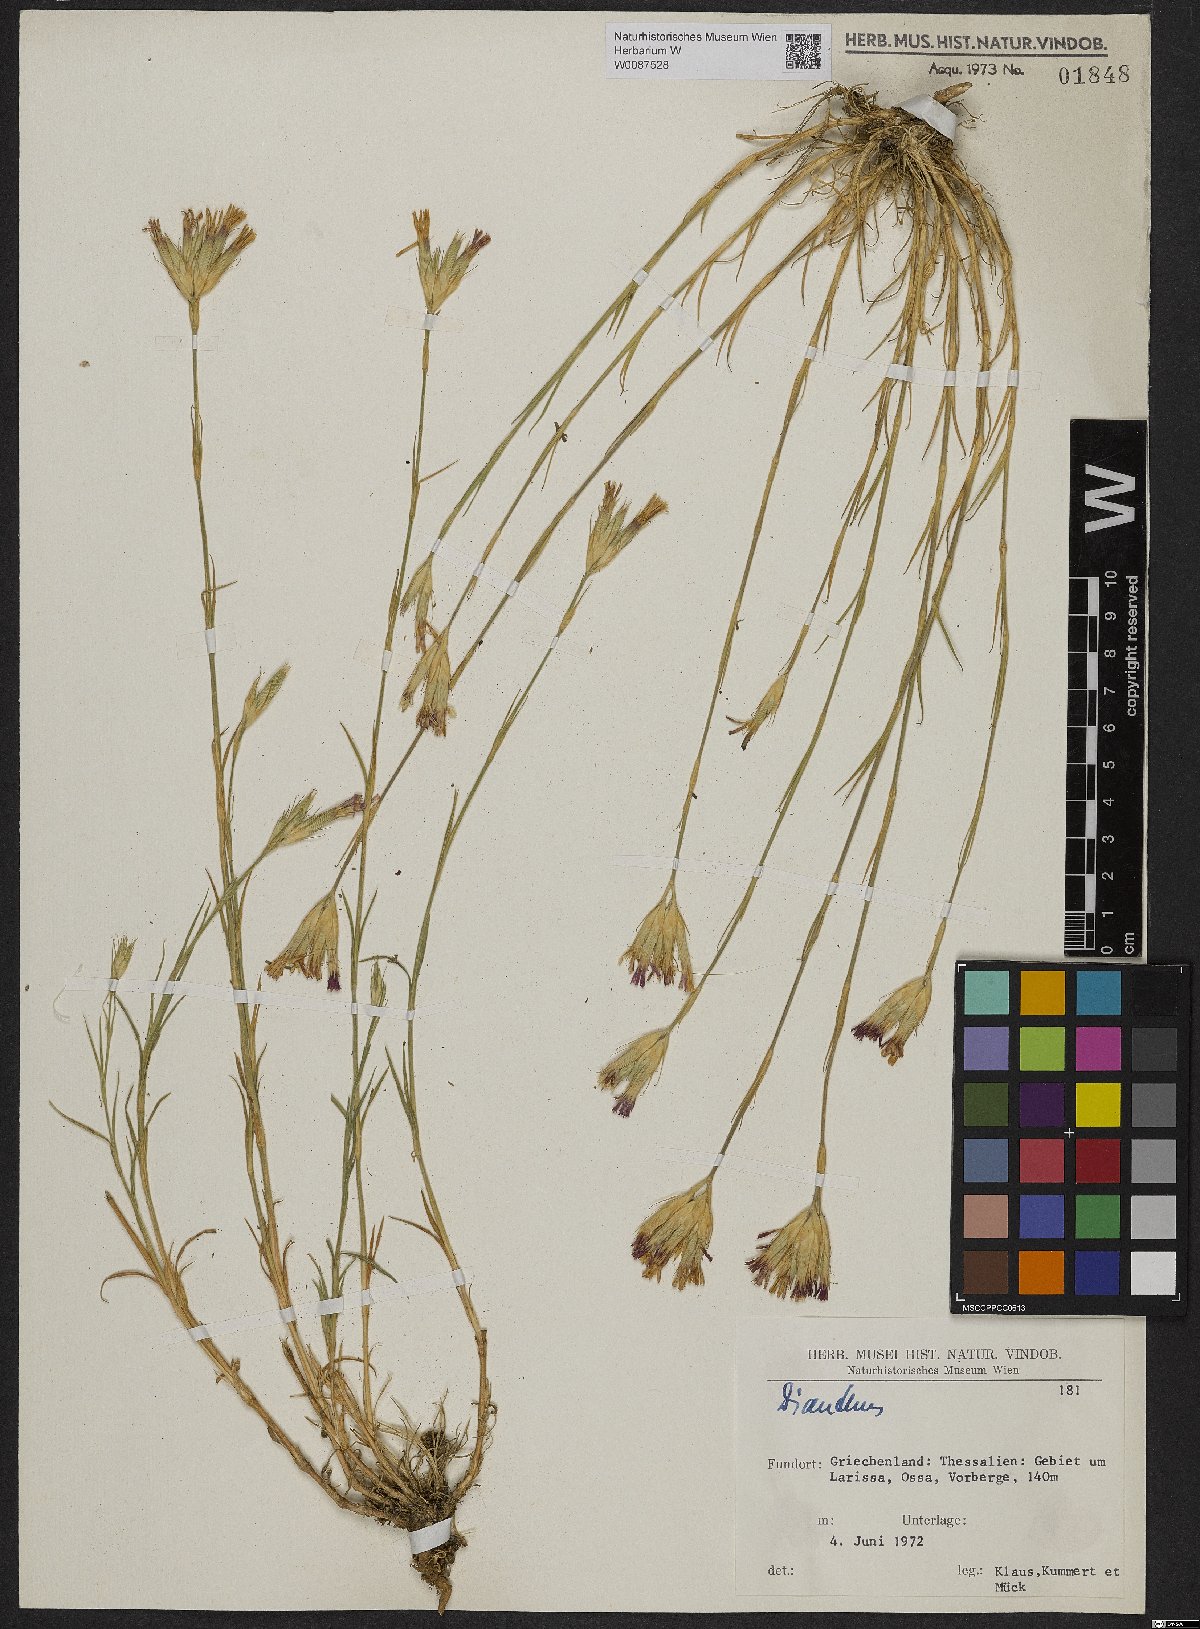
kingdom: Plantae
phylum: Tracheophyta
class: Magnoliopsida
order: Caryophyllales
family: Caryophyllaceae
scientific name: Caryophyllaceae
